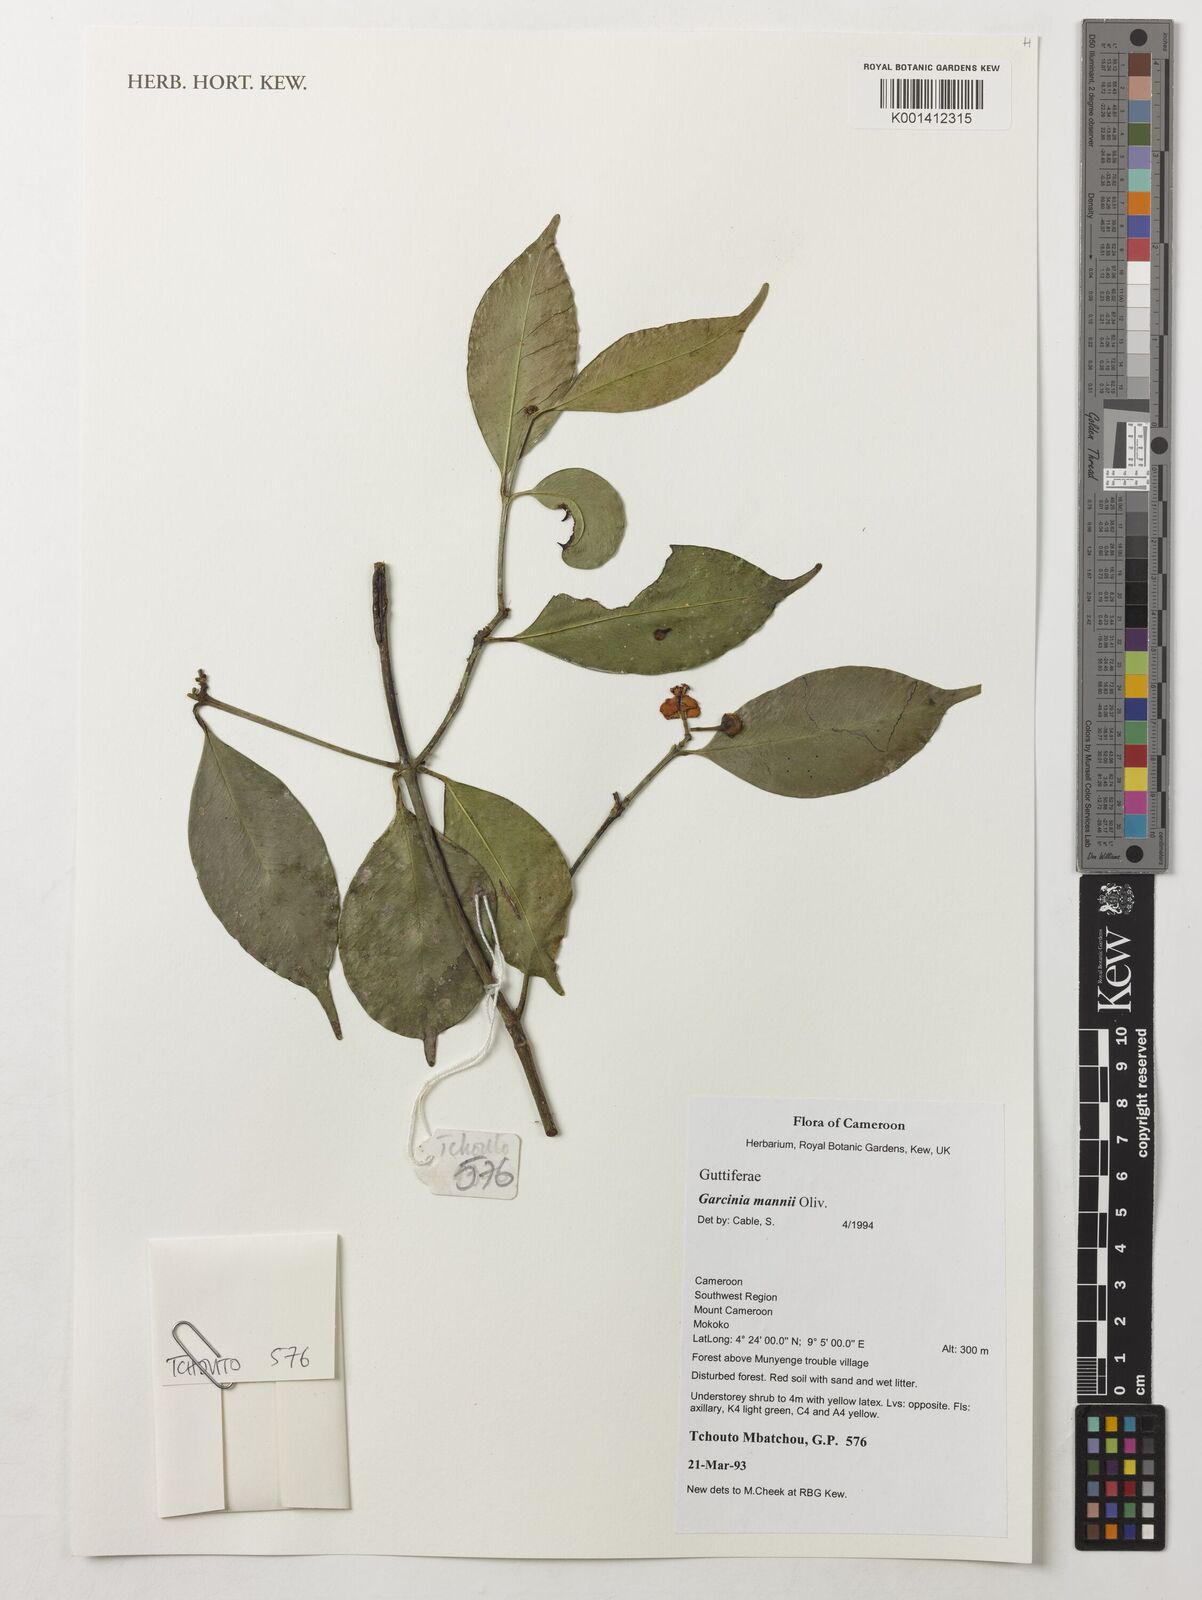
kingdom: Plantae
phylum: Tracheophyta
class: Magnoliopsida
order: Malpighiales
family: Clusiaceae
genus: Garcinia
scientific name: Garcinia mannii
